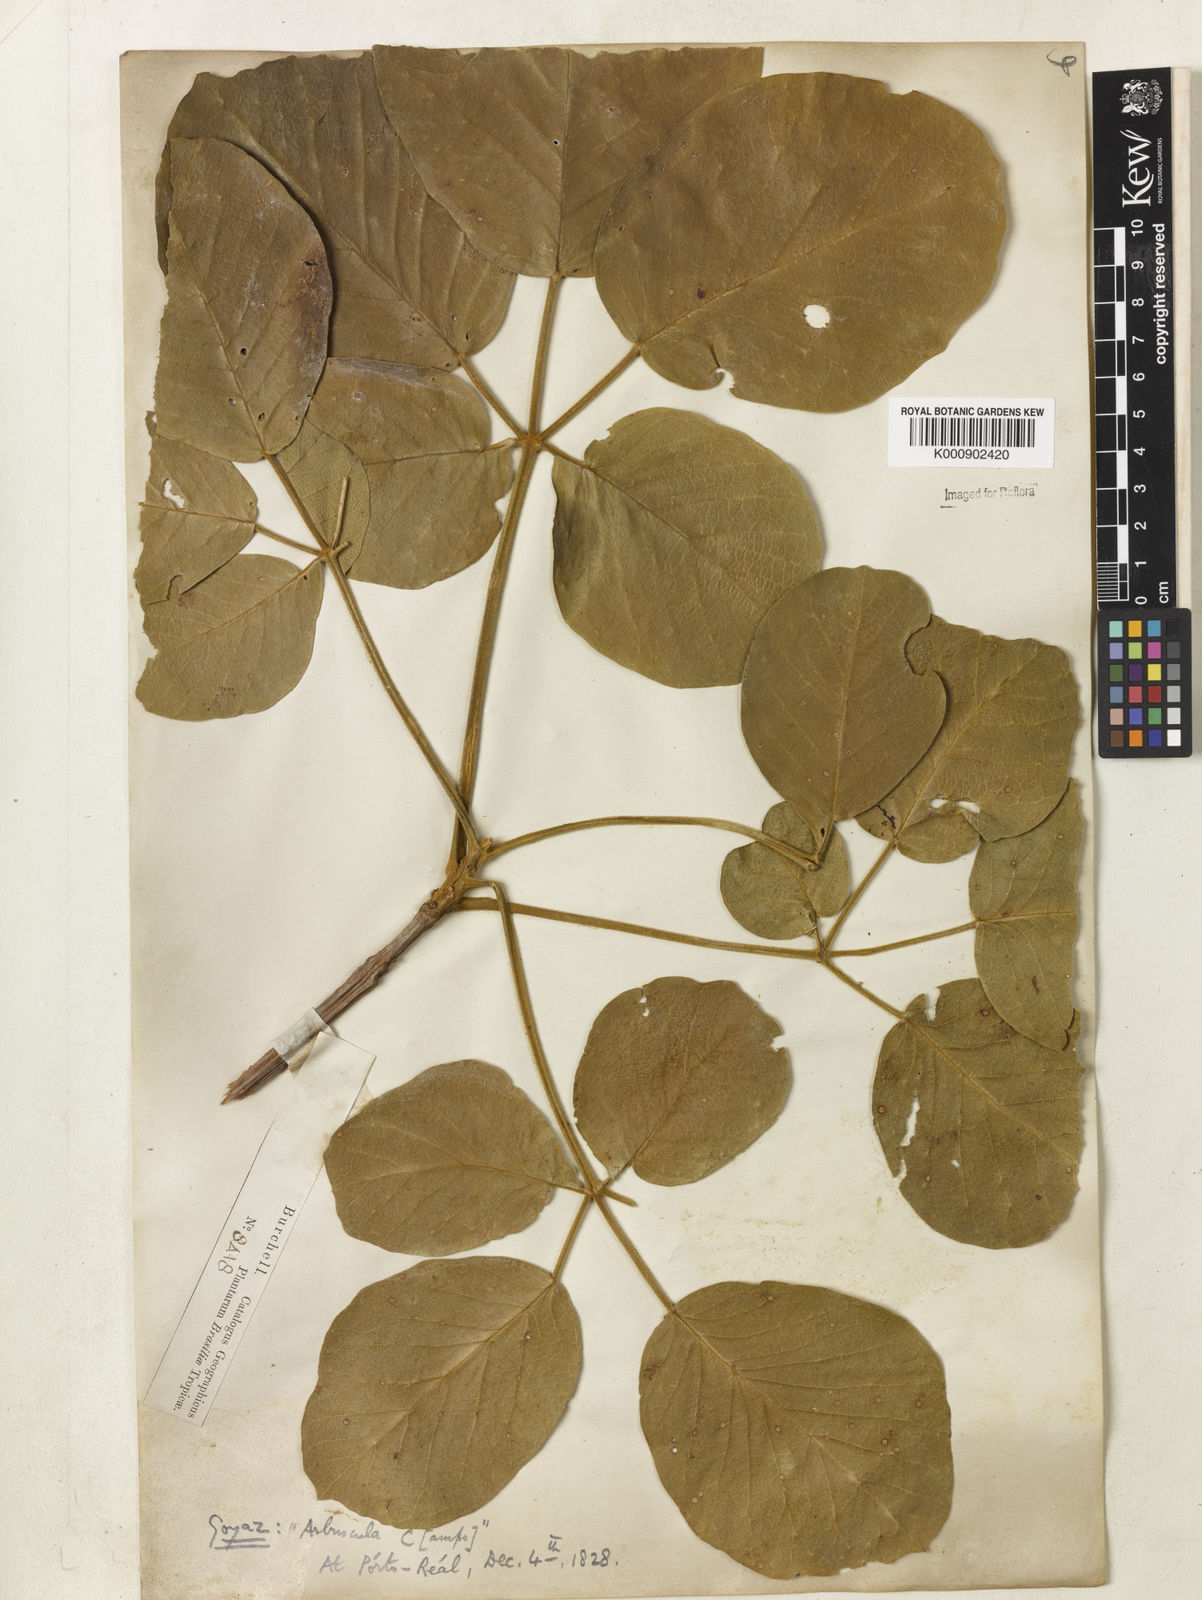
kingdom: Plantae
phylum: Tracheophyta
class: Magnoliopsida
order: Lamiales
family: Bignoniaceae
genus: Handroanthus
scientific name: Handroanthus ochraceus
